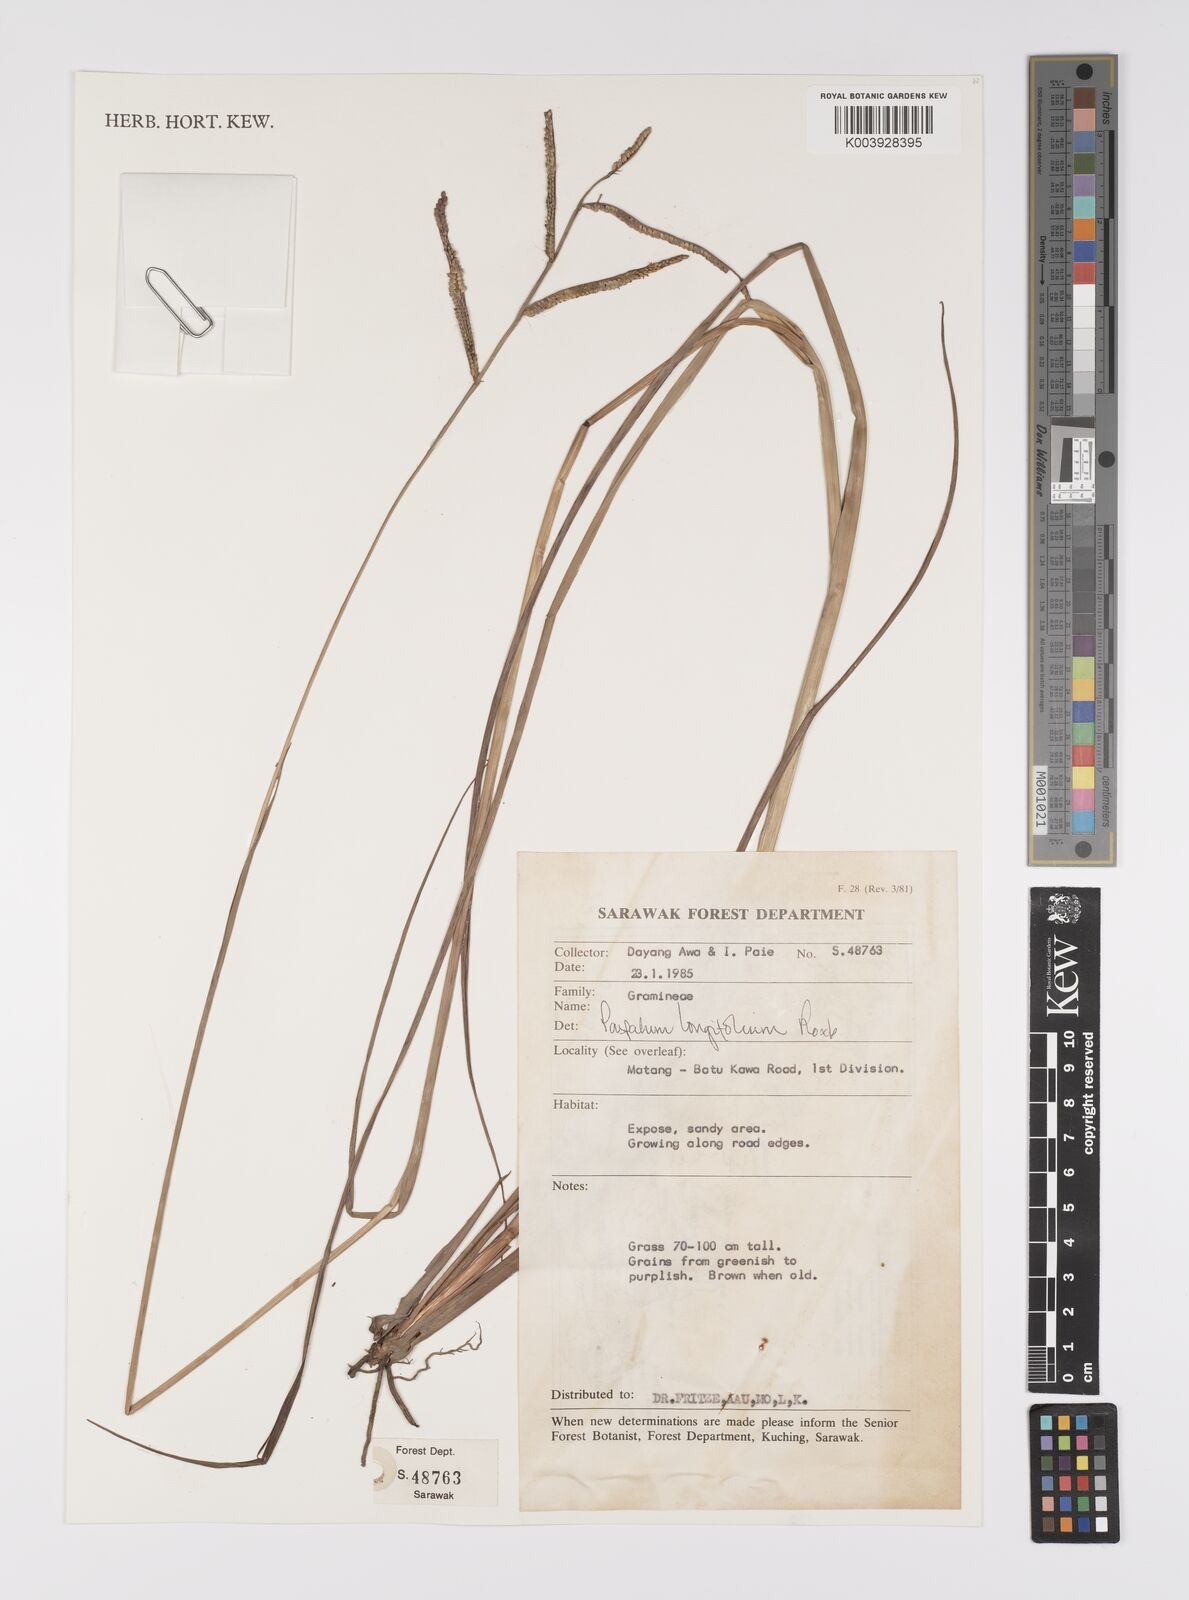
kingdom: Plantae
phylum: Tracheophyta
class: Liliopsida
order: Poales
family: Poaceae
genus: Paspalum
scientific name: Paspalum sumatrense
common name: Long-leaved paspalum
